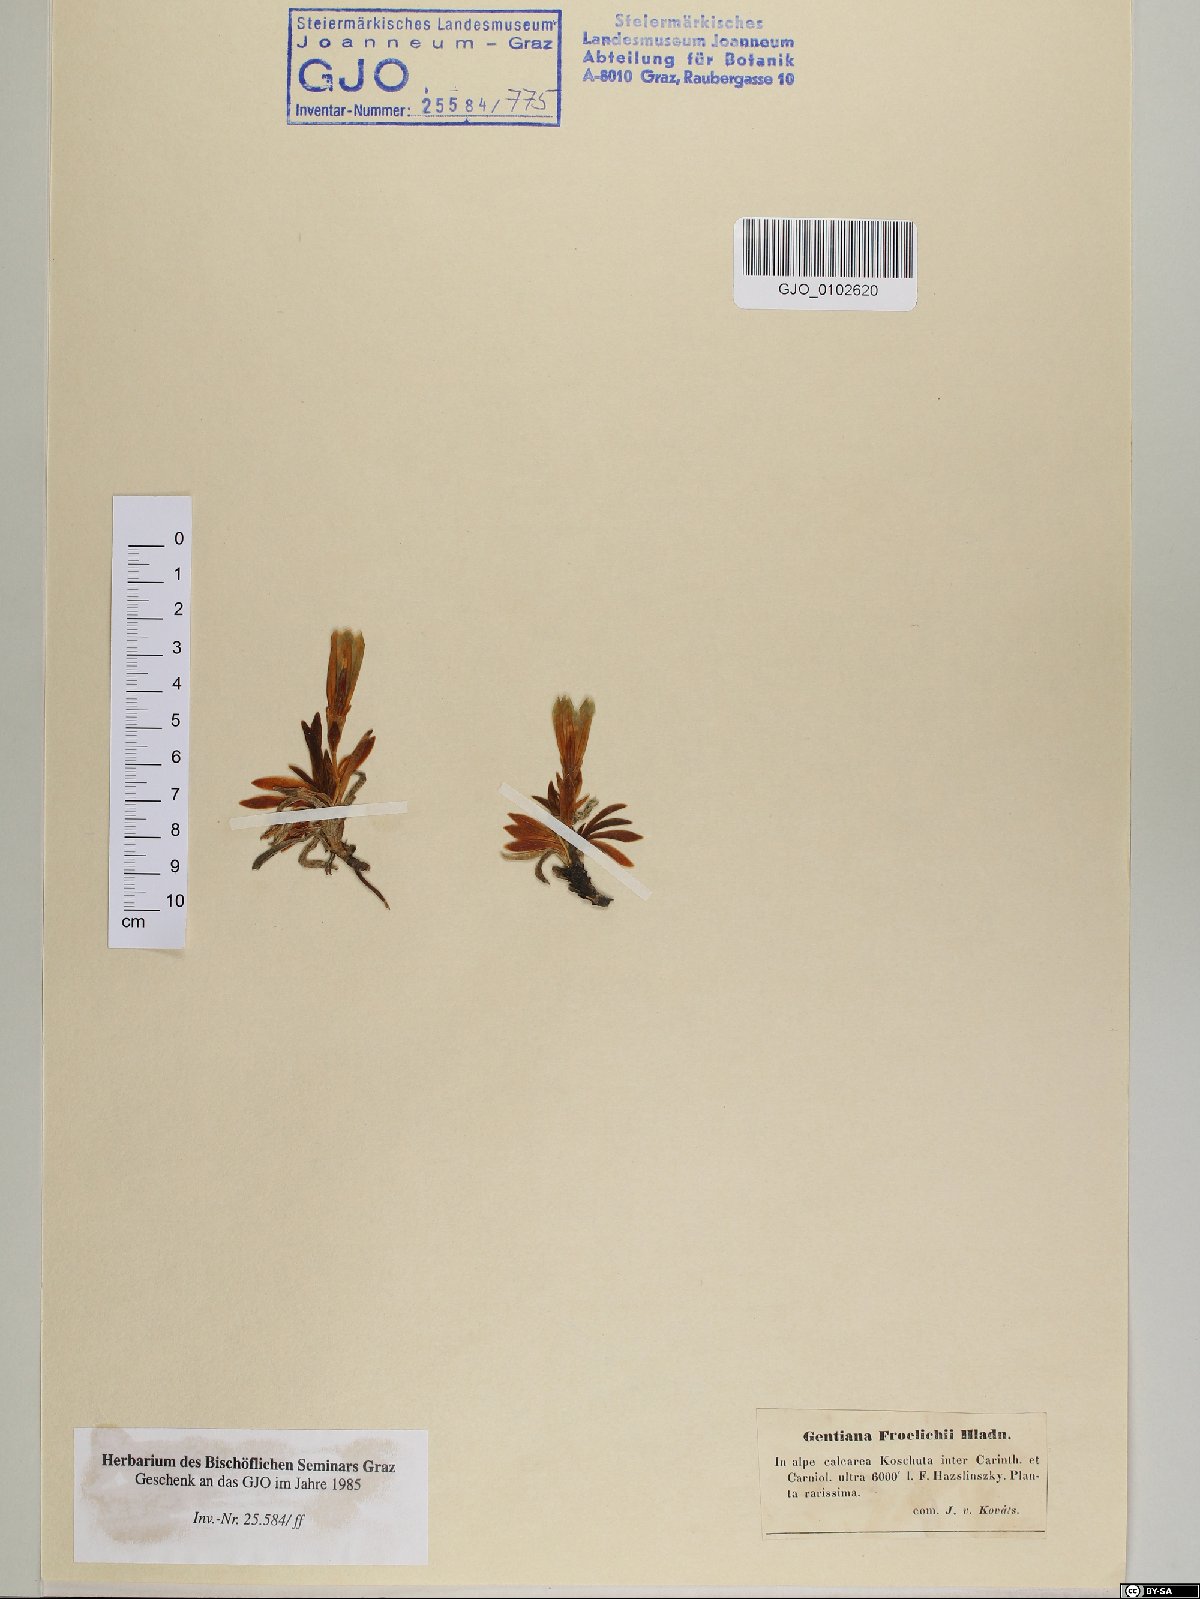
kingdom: Plantae
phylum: Tracheophyta
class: Magnoliopsida
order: Gentianales
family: Gentianaceae
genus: Gentiana
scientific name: Gentiana froelichii
